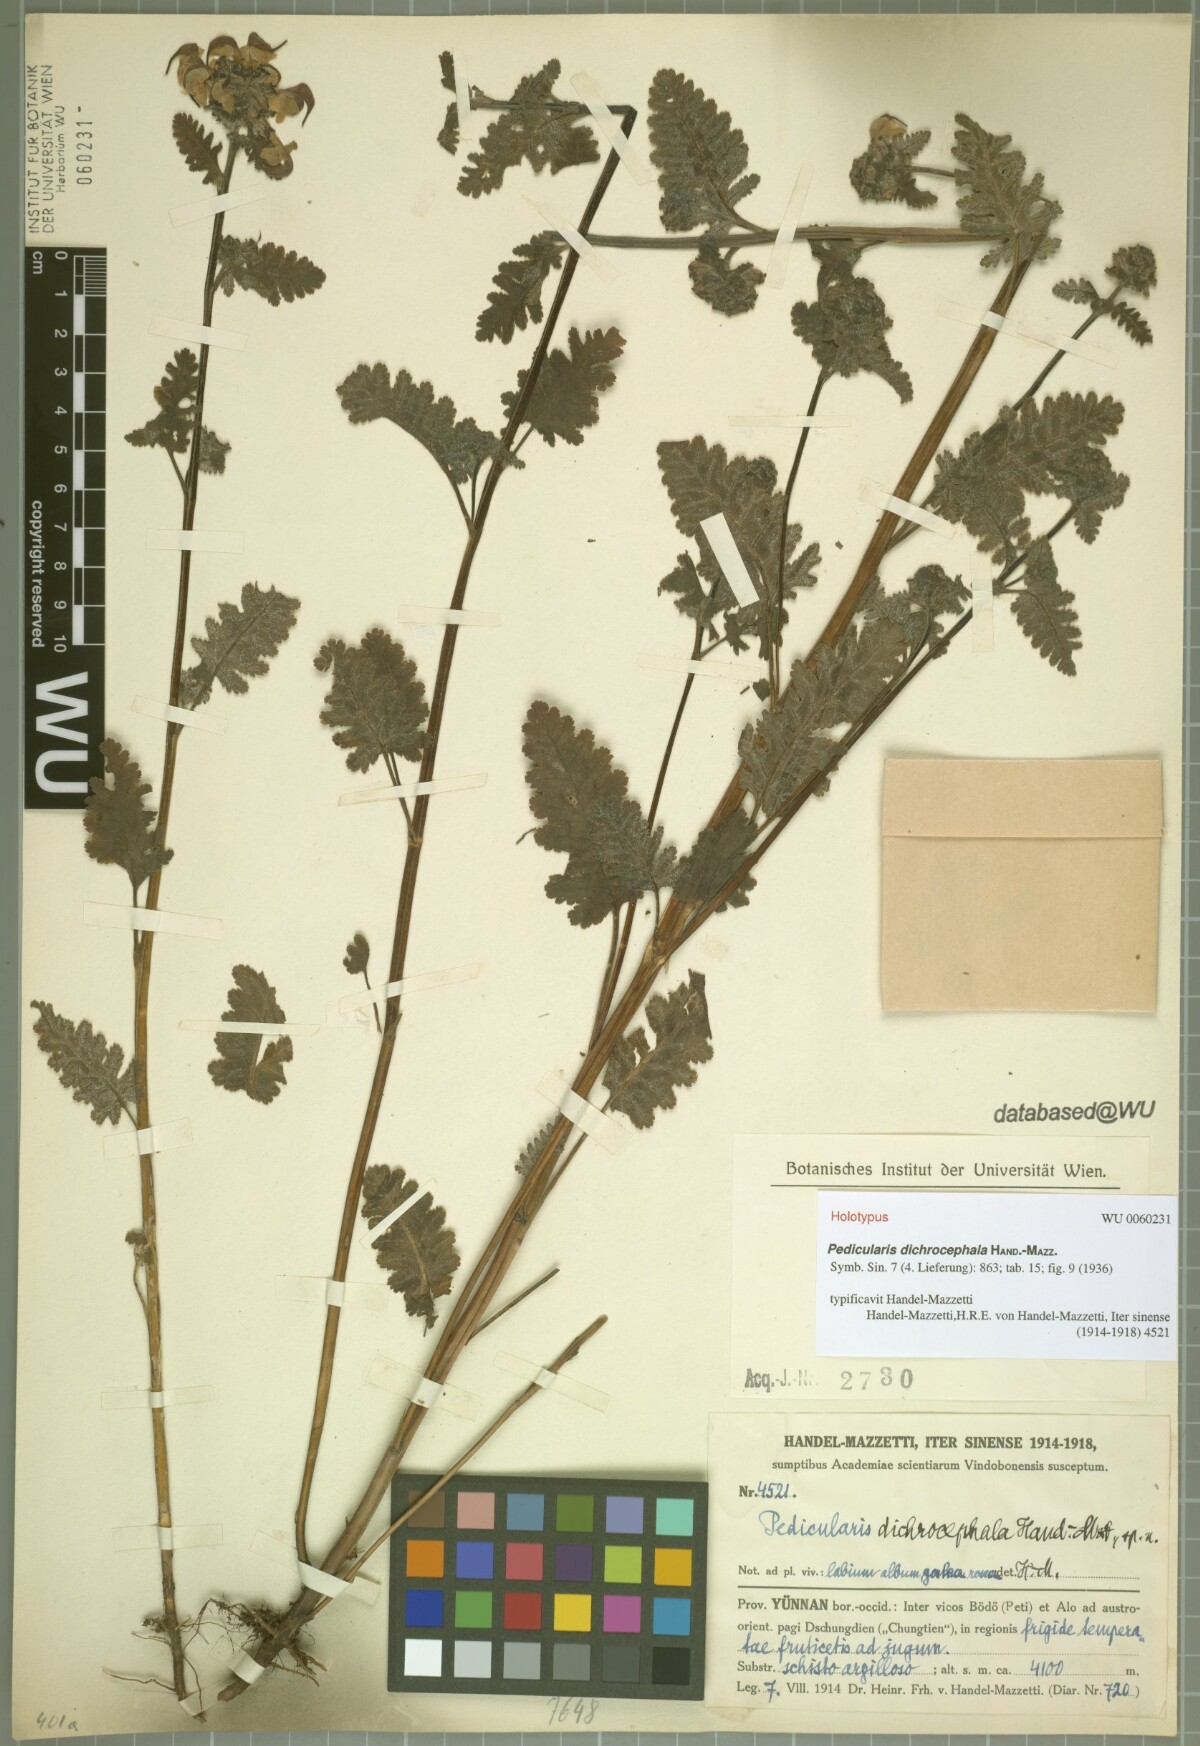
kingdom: Plantae
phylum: Tracheophyta
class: Magnoliopsida
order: Lamiales
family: Orobanchaceae
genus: Pedicularis
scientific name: Pedicularis dichrocephala
